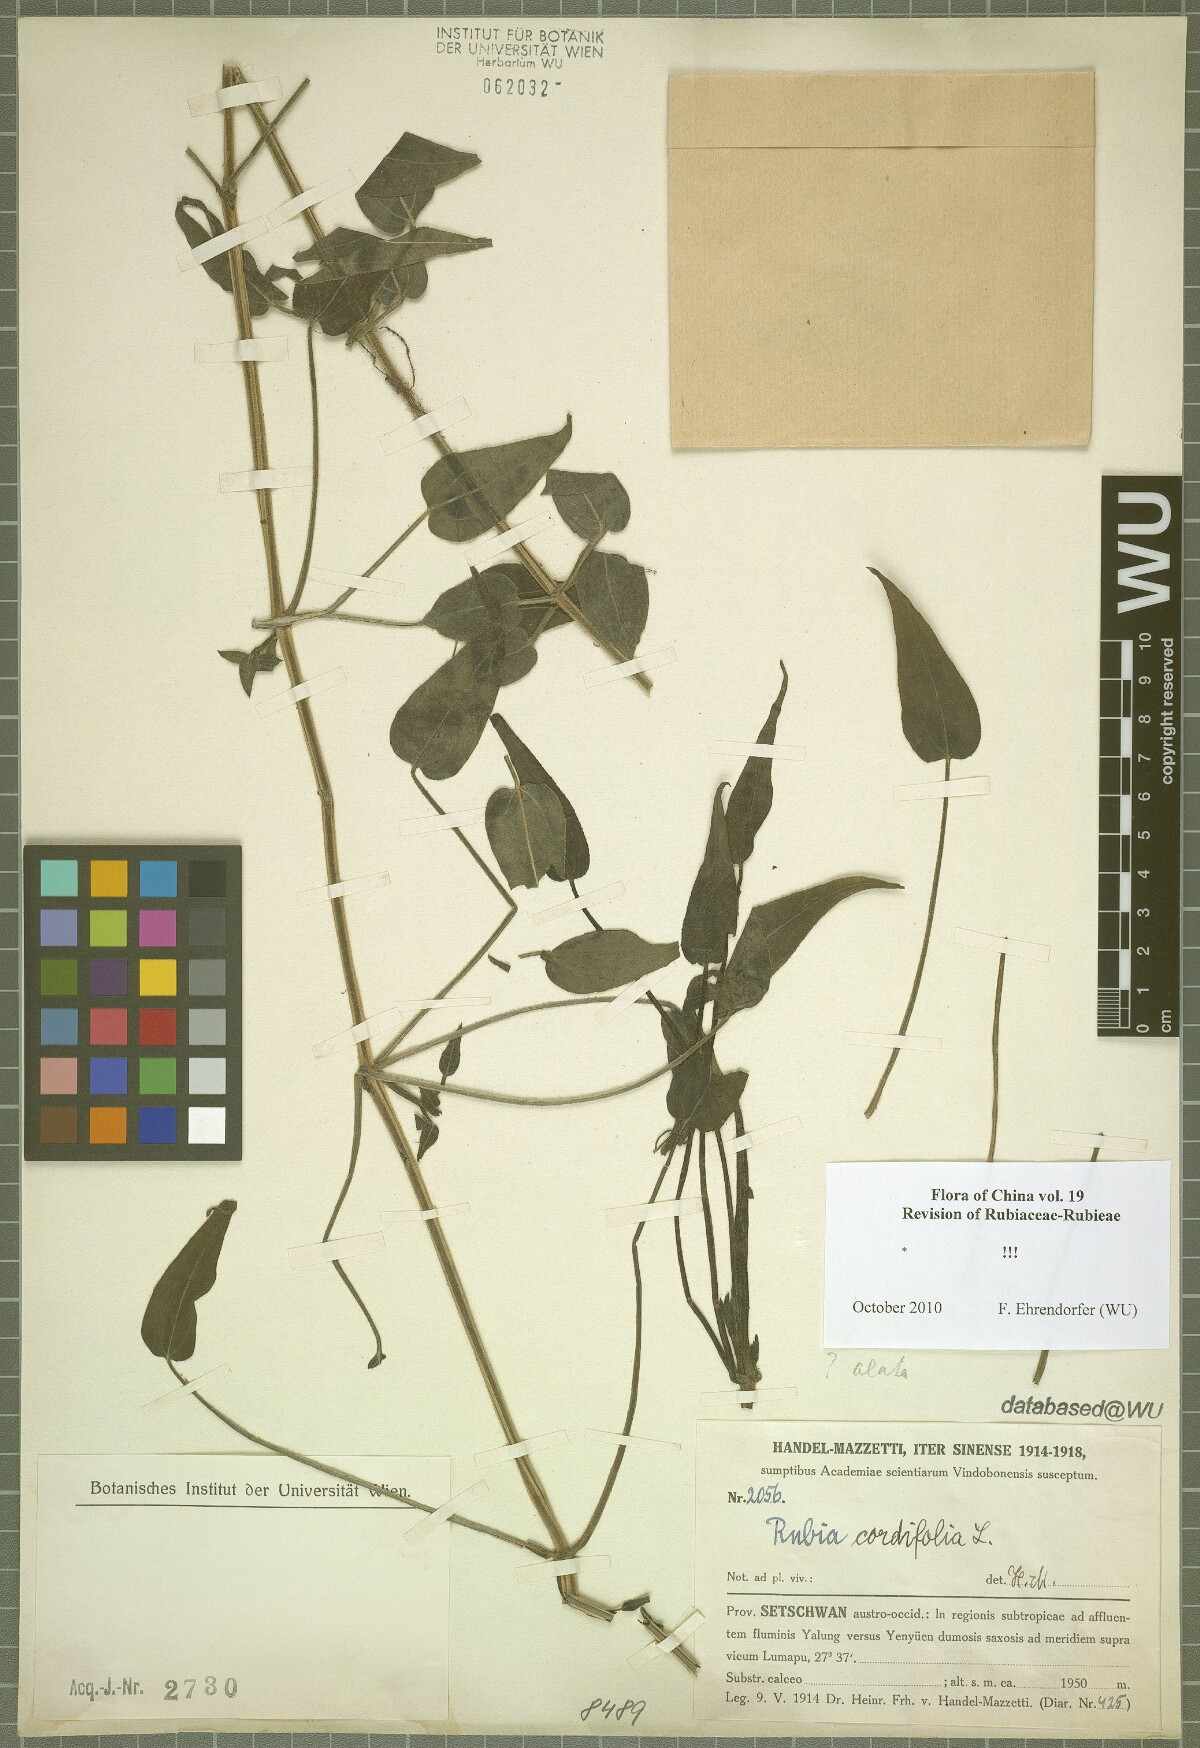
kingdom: Plantae
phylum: Tracheophyta
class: Magnoliopsida
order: Gentianales
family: Rubiaceae
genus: Rubia
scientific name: Rubia cordifolia
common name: Indian madder
